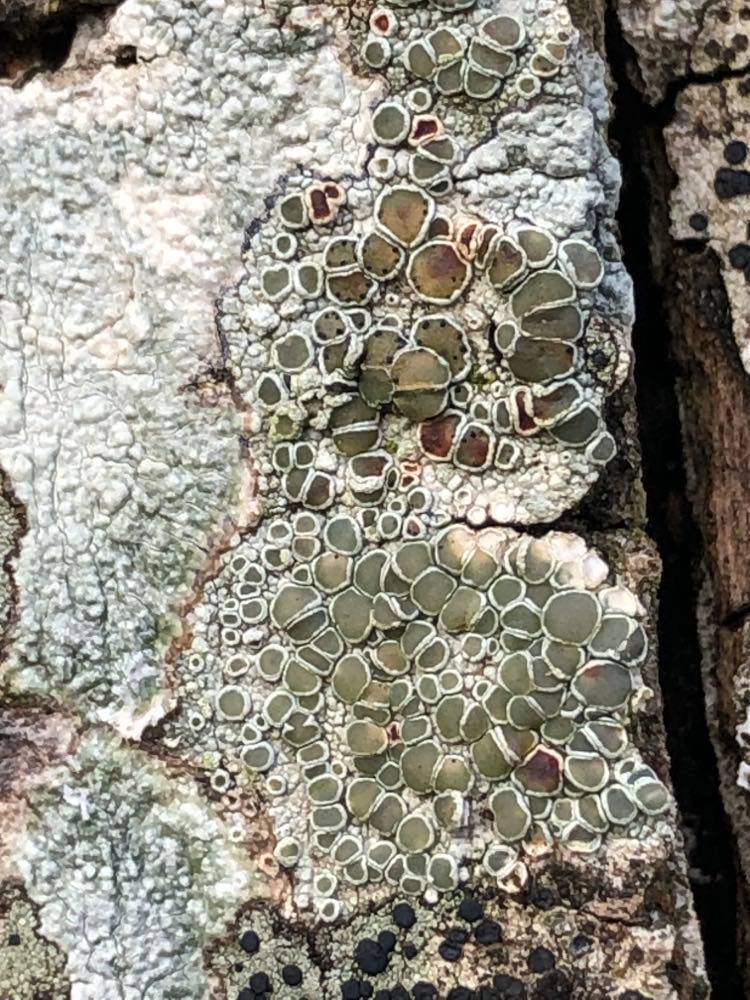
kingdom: Fungi
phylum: Ascomycota
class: Lecanoromycetes
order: Lecanorales
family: Lecanoraceae
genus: Lecanora
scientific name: Lecanora chlarotera
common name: brun kantskivelav
